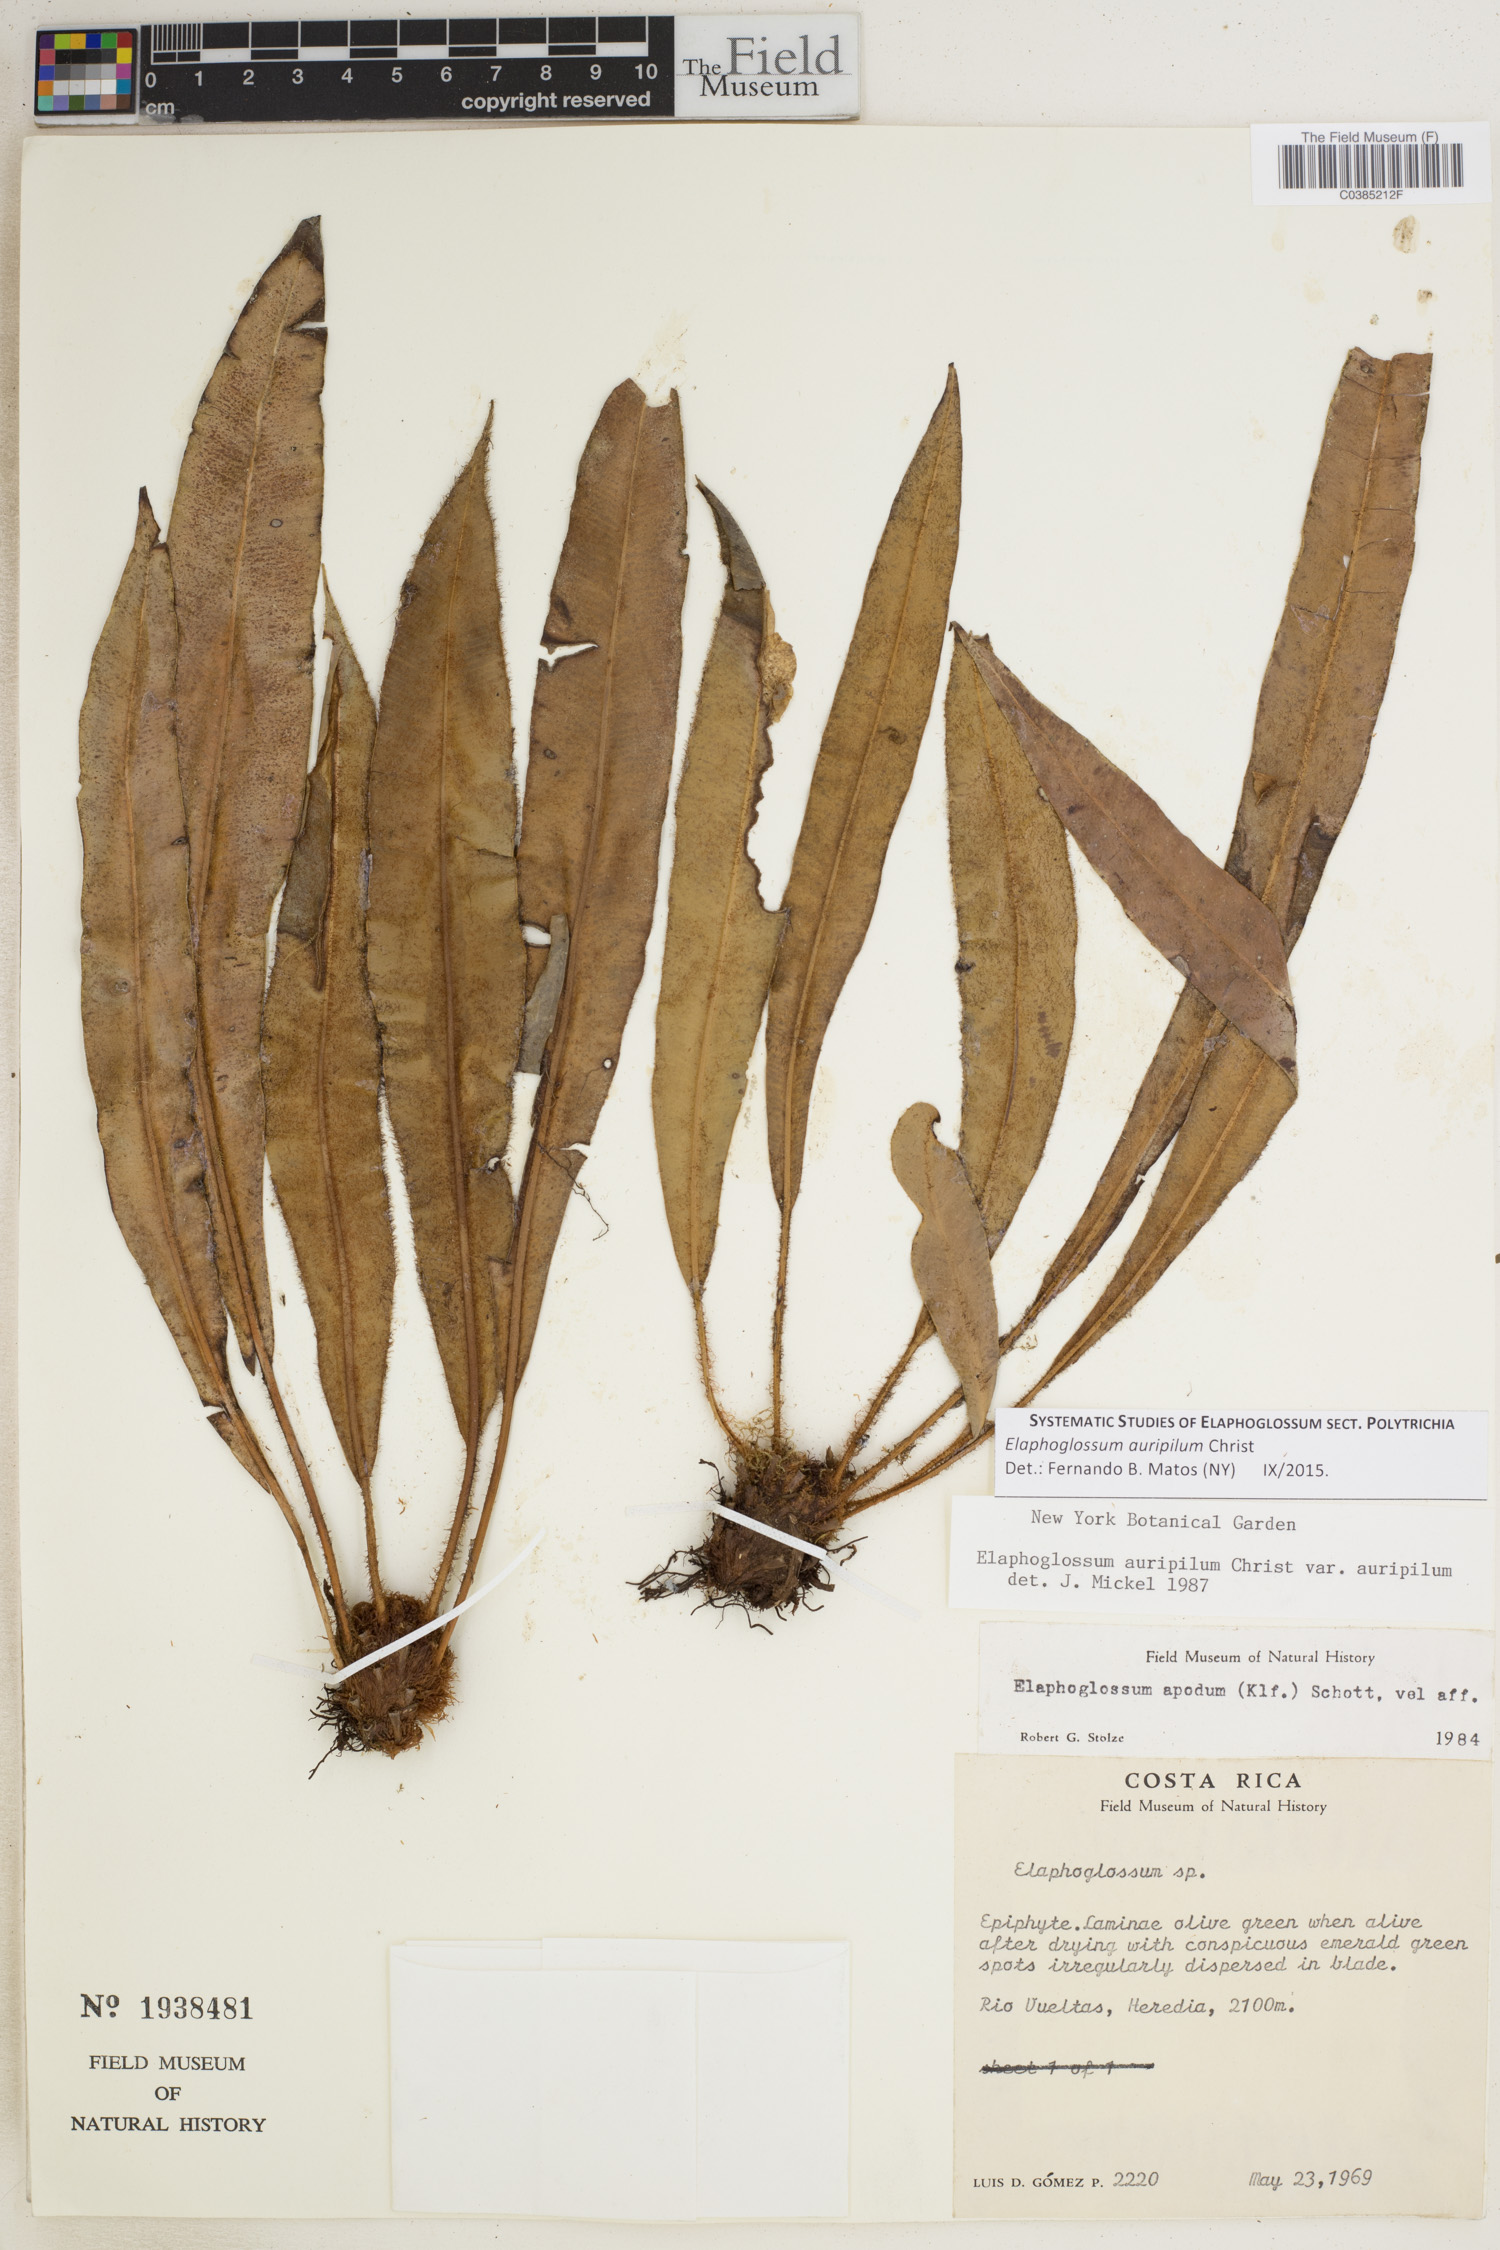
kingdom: Plantae
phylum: Tracheophyta
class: Polypodiopsida
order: Polypodiales
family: Dryopteridaceae
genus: Elaphoglossum
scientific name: Elaphoglossum auripilum
